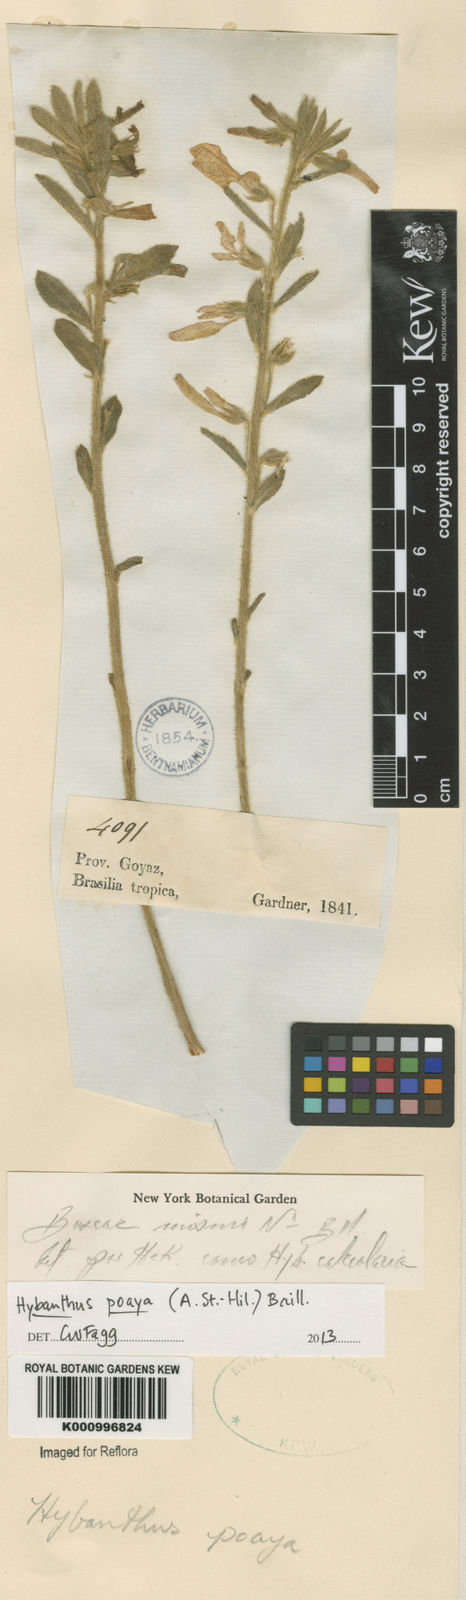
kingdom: Plantae
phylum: Tracheophyta
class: Magnoliopsida
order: Malpighiales
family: Violaceae
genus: Pombalia
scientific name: Pombalia poaya
